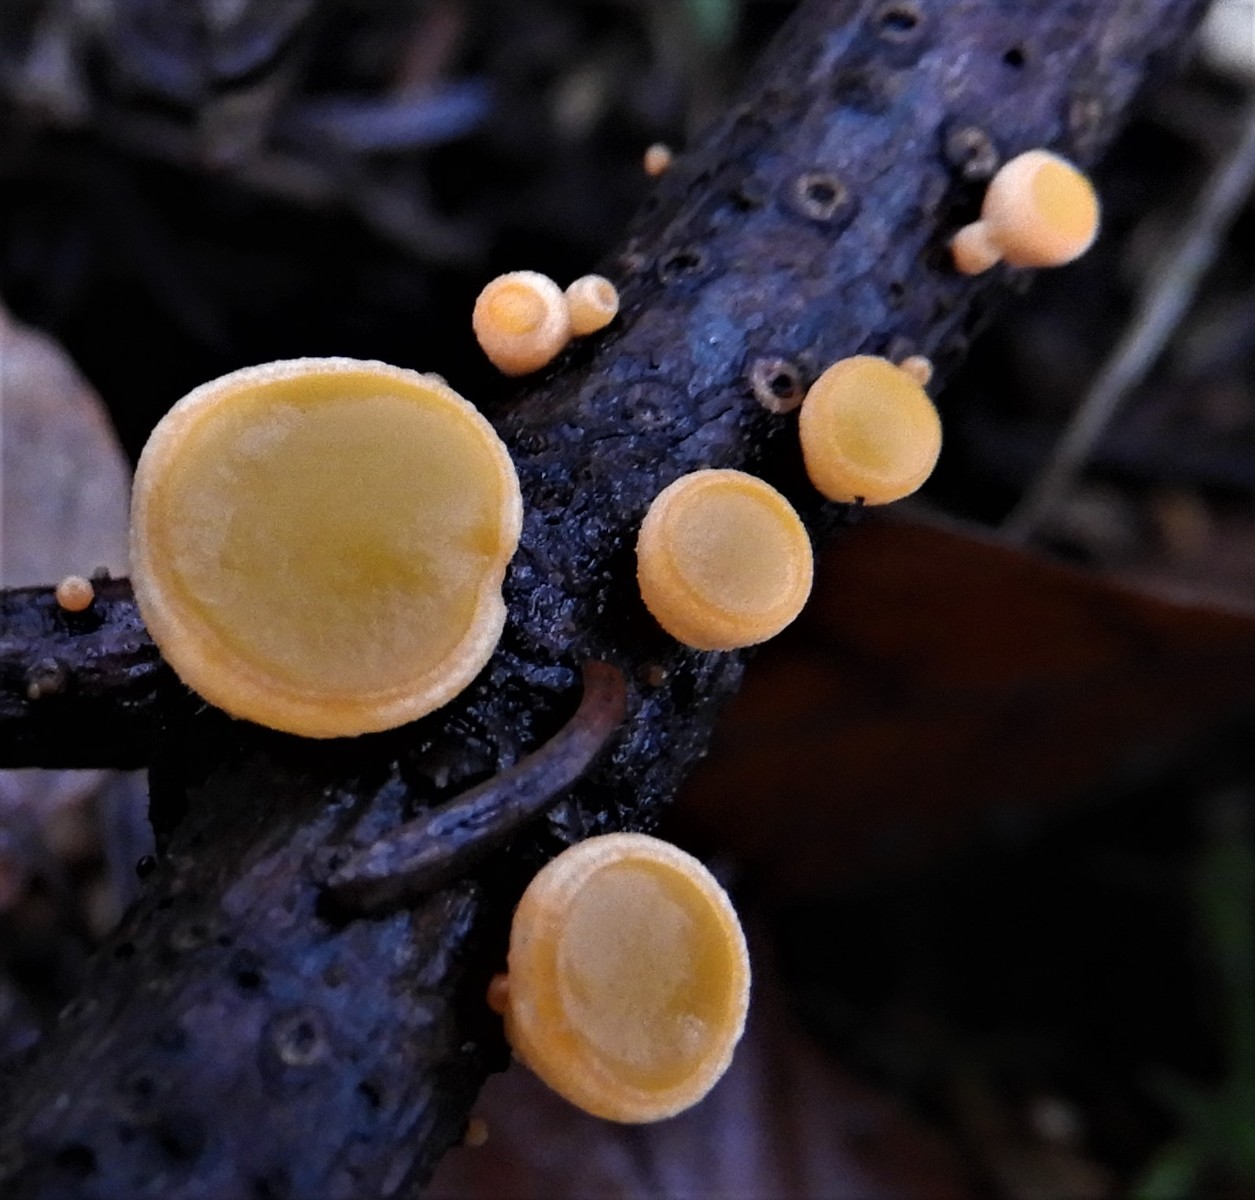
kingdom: Fungi
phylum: Ascomycota
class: Pezizomycetes
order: Pezizales
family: Sarcoscyphaceae
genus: Pithya
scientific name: Pithya vulgaris
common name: stor dukatbæger
